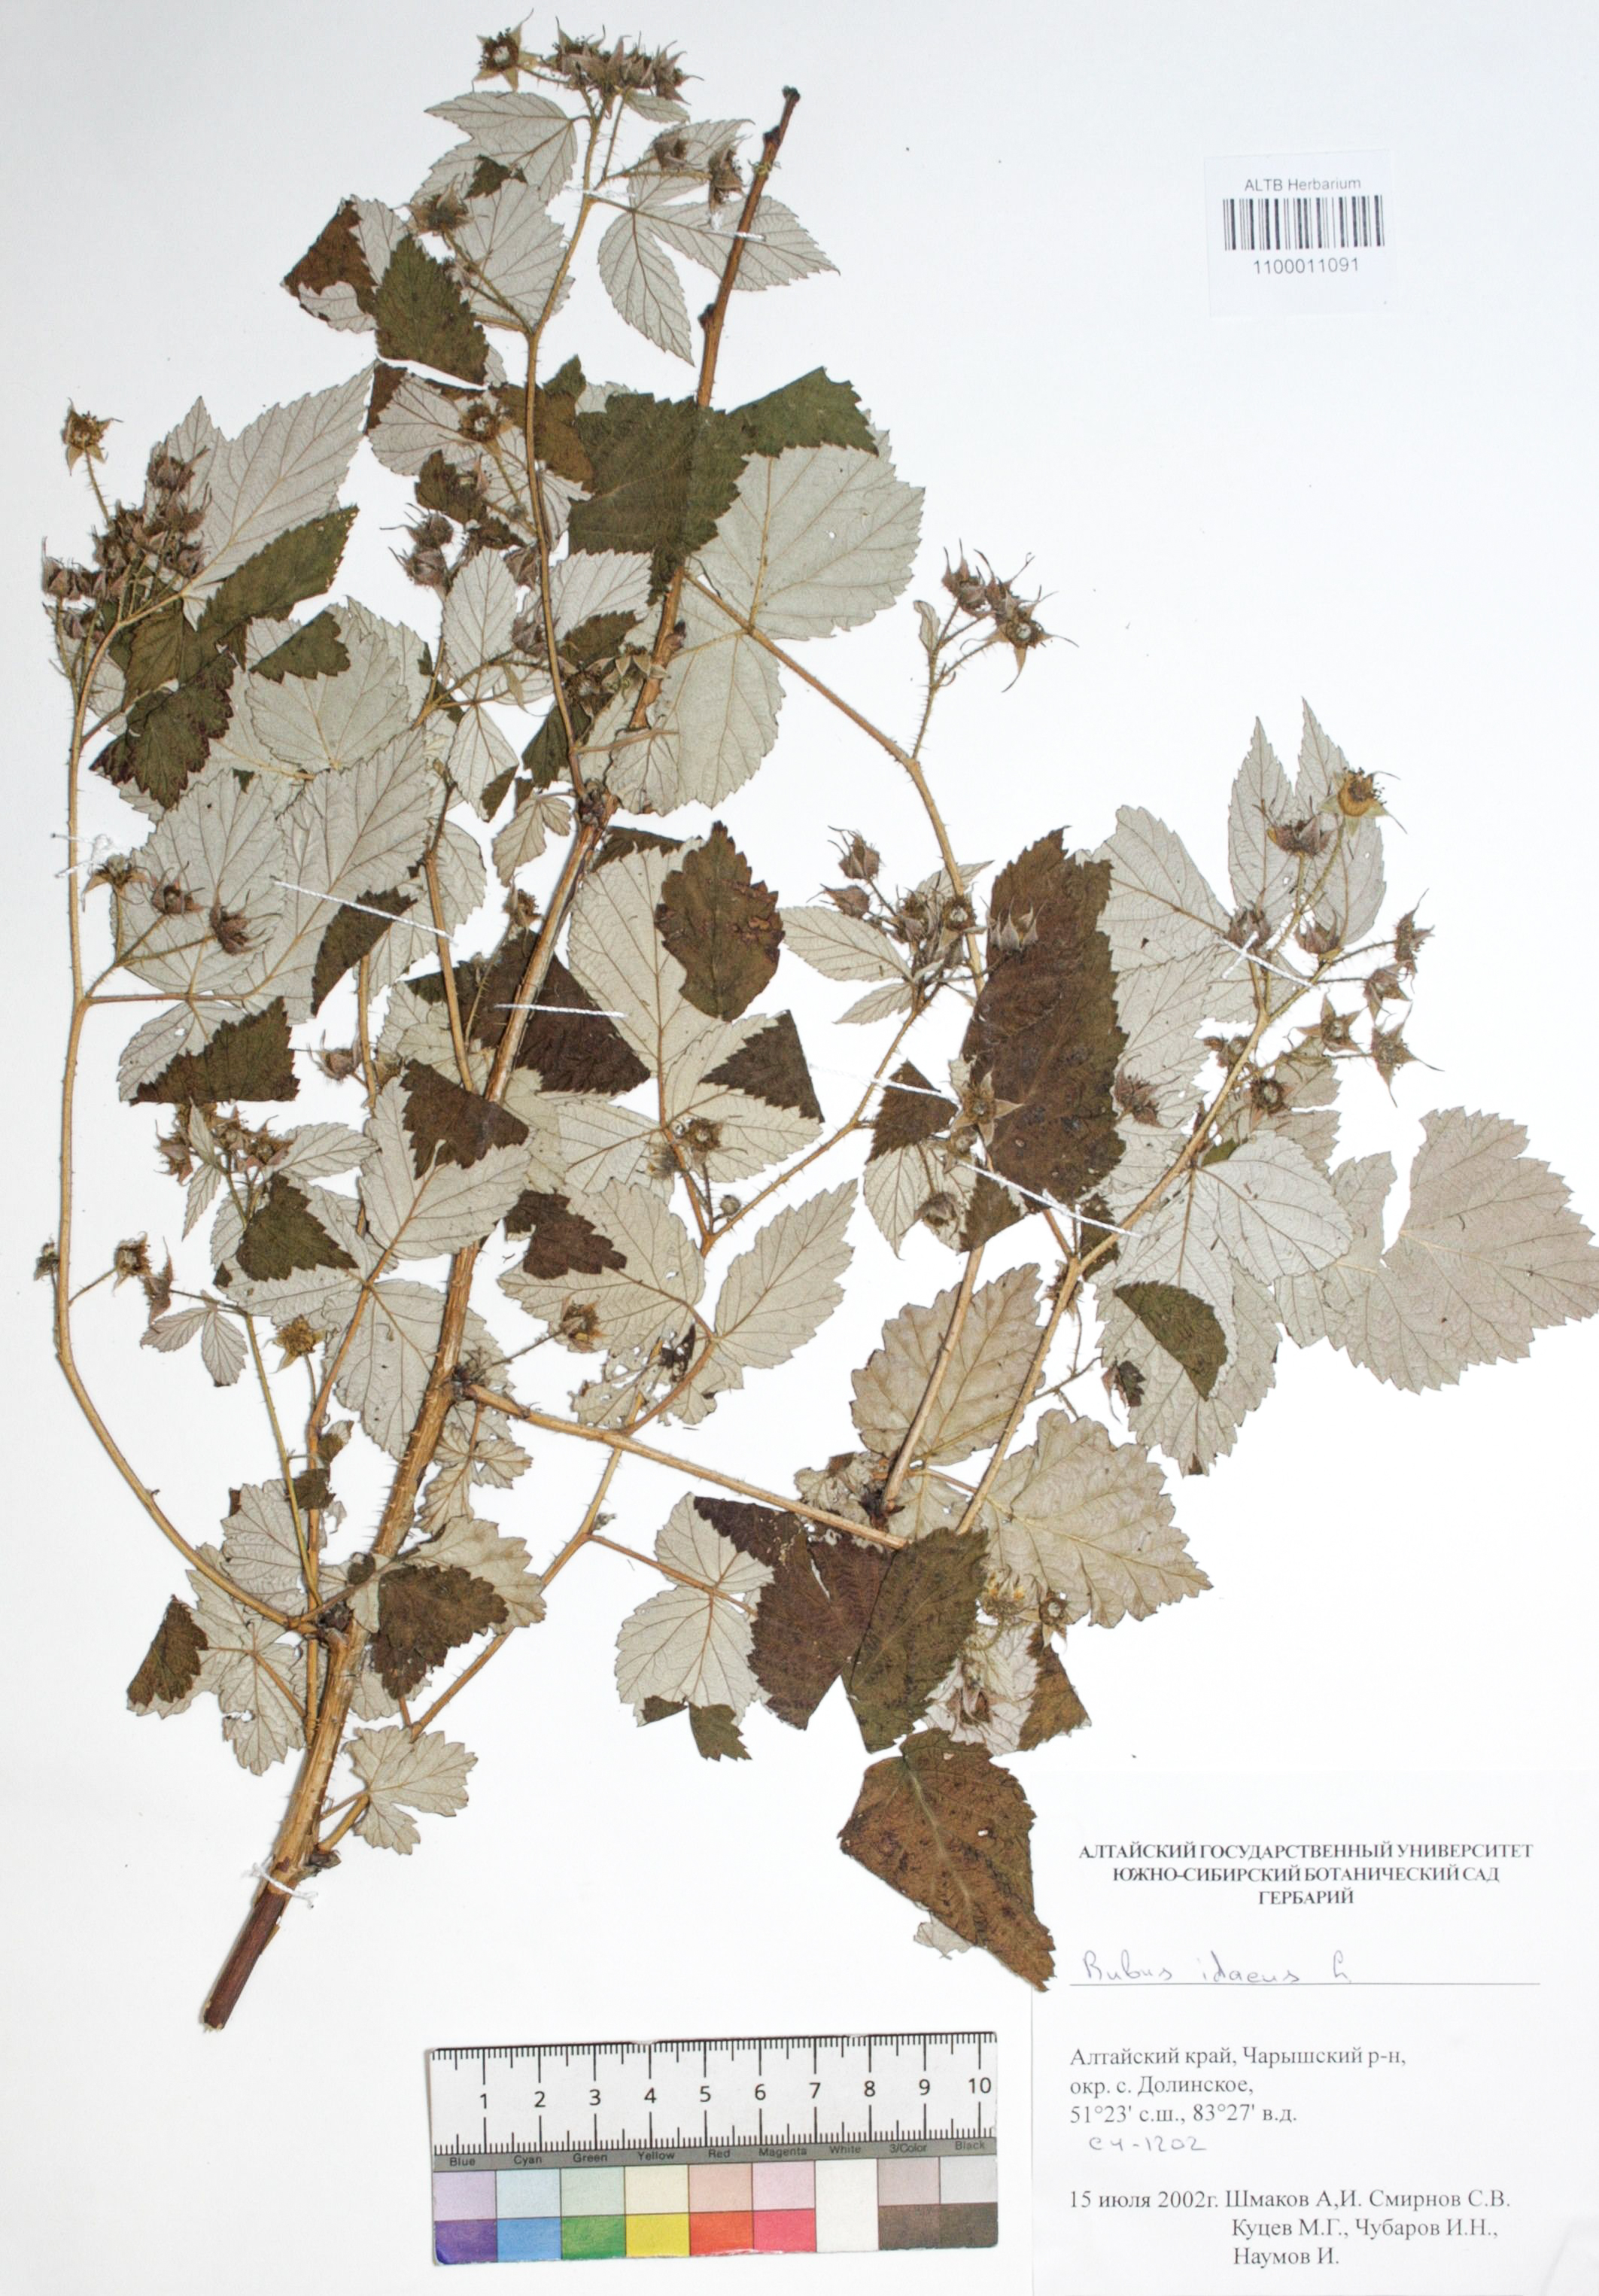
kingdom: Plantae
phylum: Tracheophyta
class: Magnoliopsida
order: Rosales
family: Rosaceae
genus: Rubus
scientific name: Rubus idaeus
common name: Raspberry
